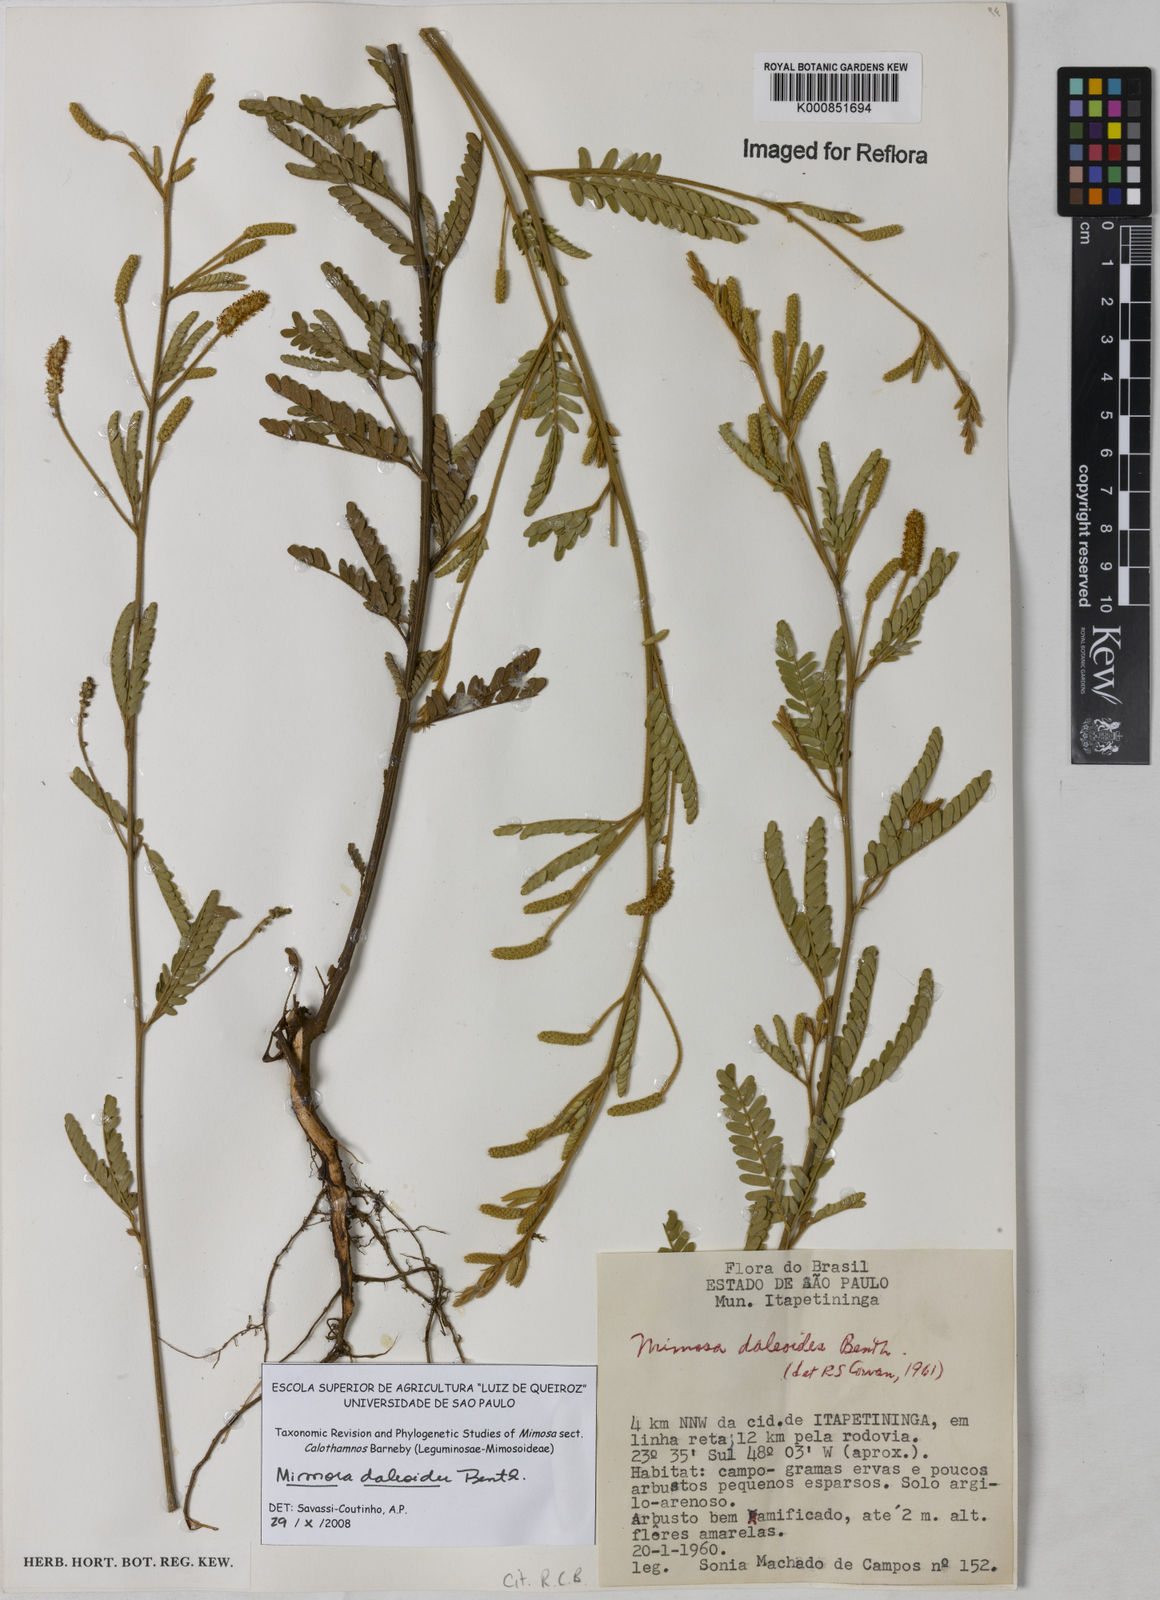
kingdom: Plantae
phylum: Tracheophyta
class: Magnoliopsida
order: Fabales
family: Fabaceae
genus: Mimosa
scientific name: Mimosa daleoides
